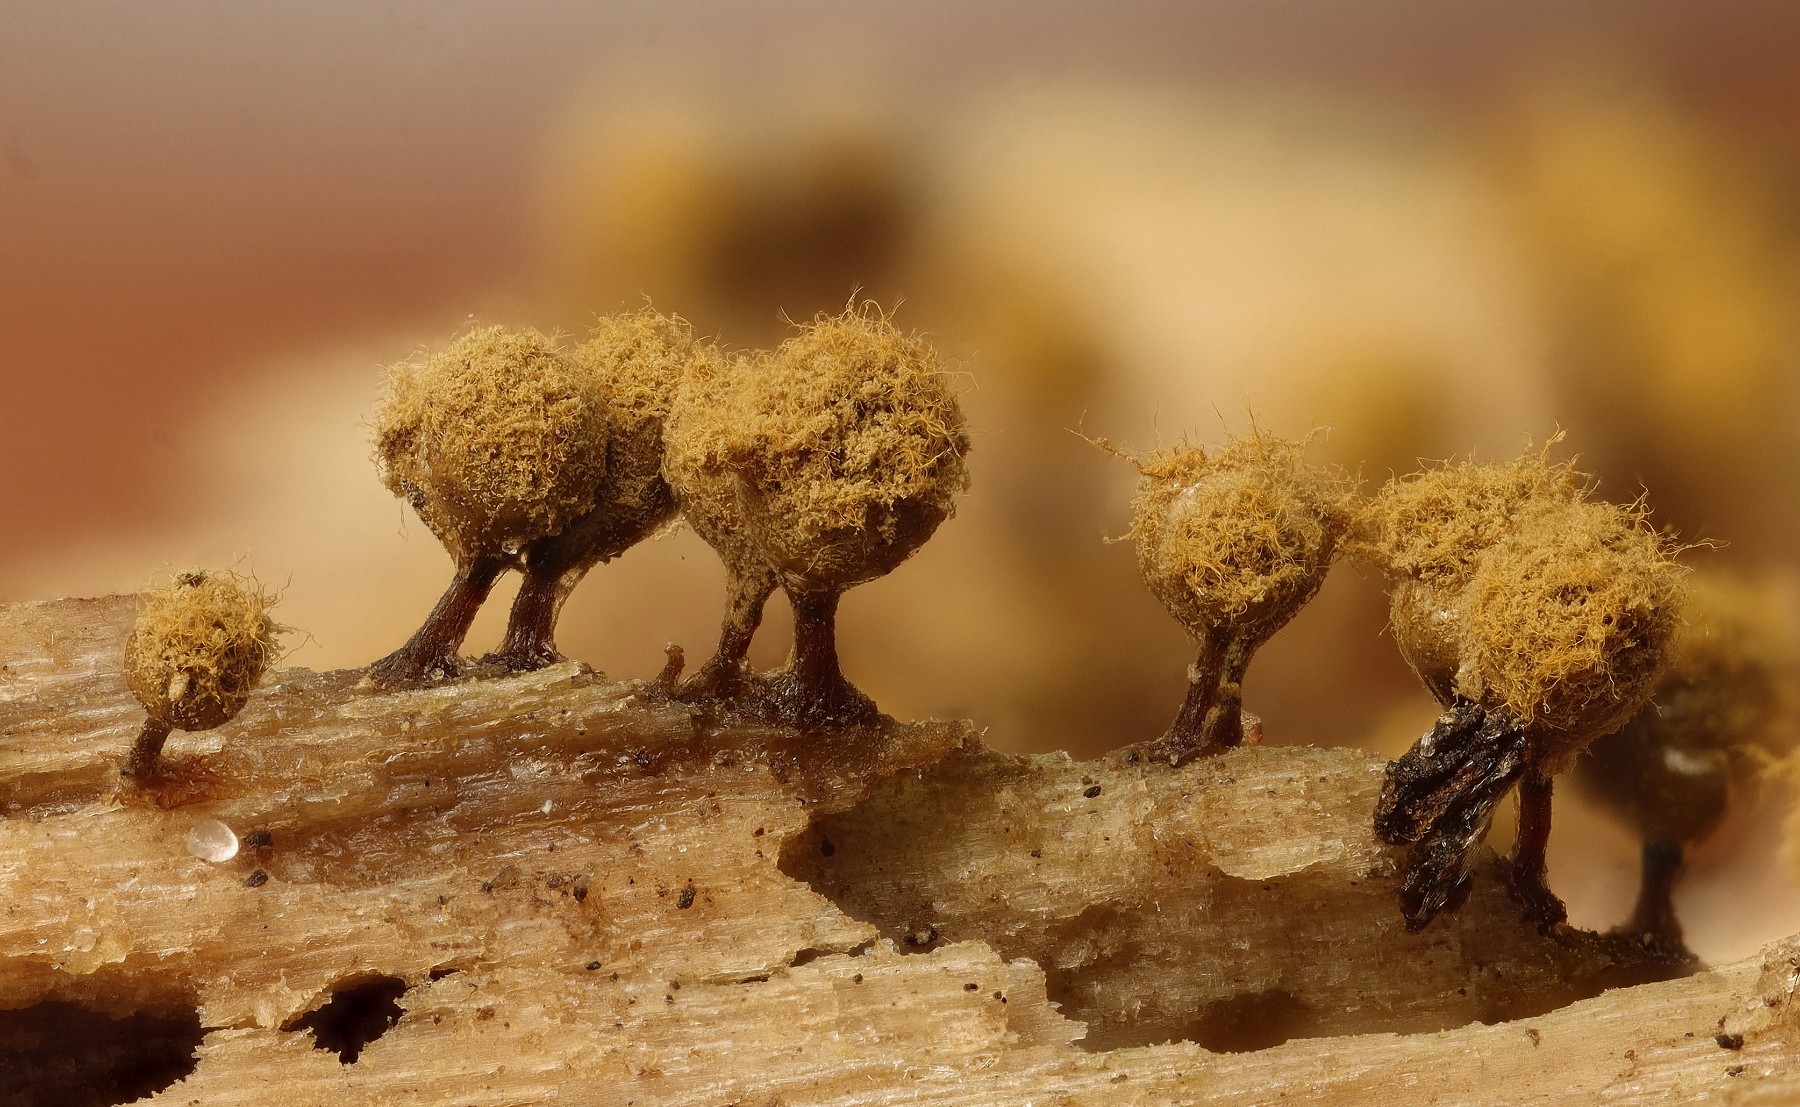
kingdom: Protozoa
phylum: Mycetozoa
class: Myxomycetes
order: Trichiales
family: Trichiaceae
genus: Trichia
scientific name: Trichia crateriformis
